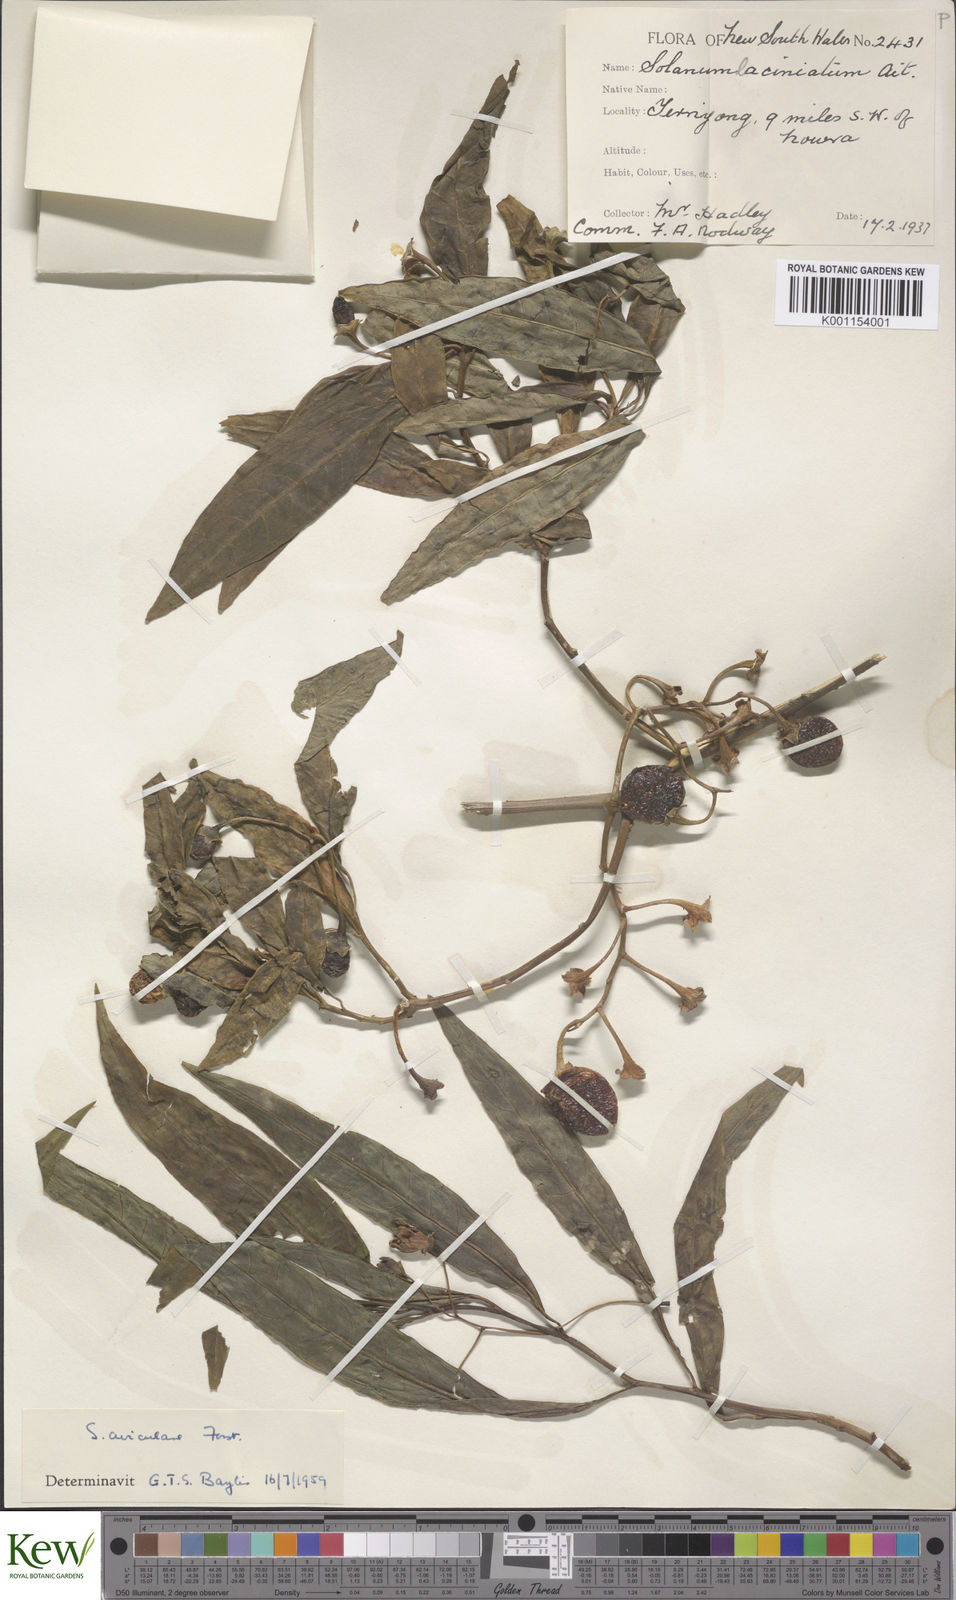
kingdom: Plantae
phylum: Tracheophyta
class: Magnoliopsida
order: Solanales
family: Solanaceae
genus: Solanum
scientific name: Solanum aviculare
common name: New zealand nightshade
